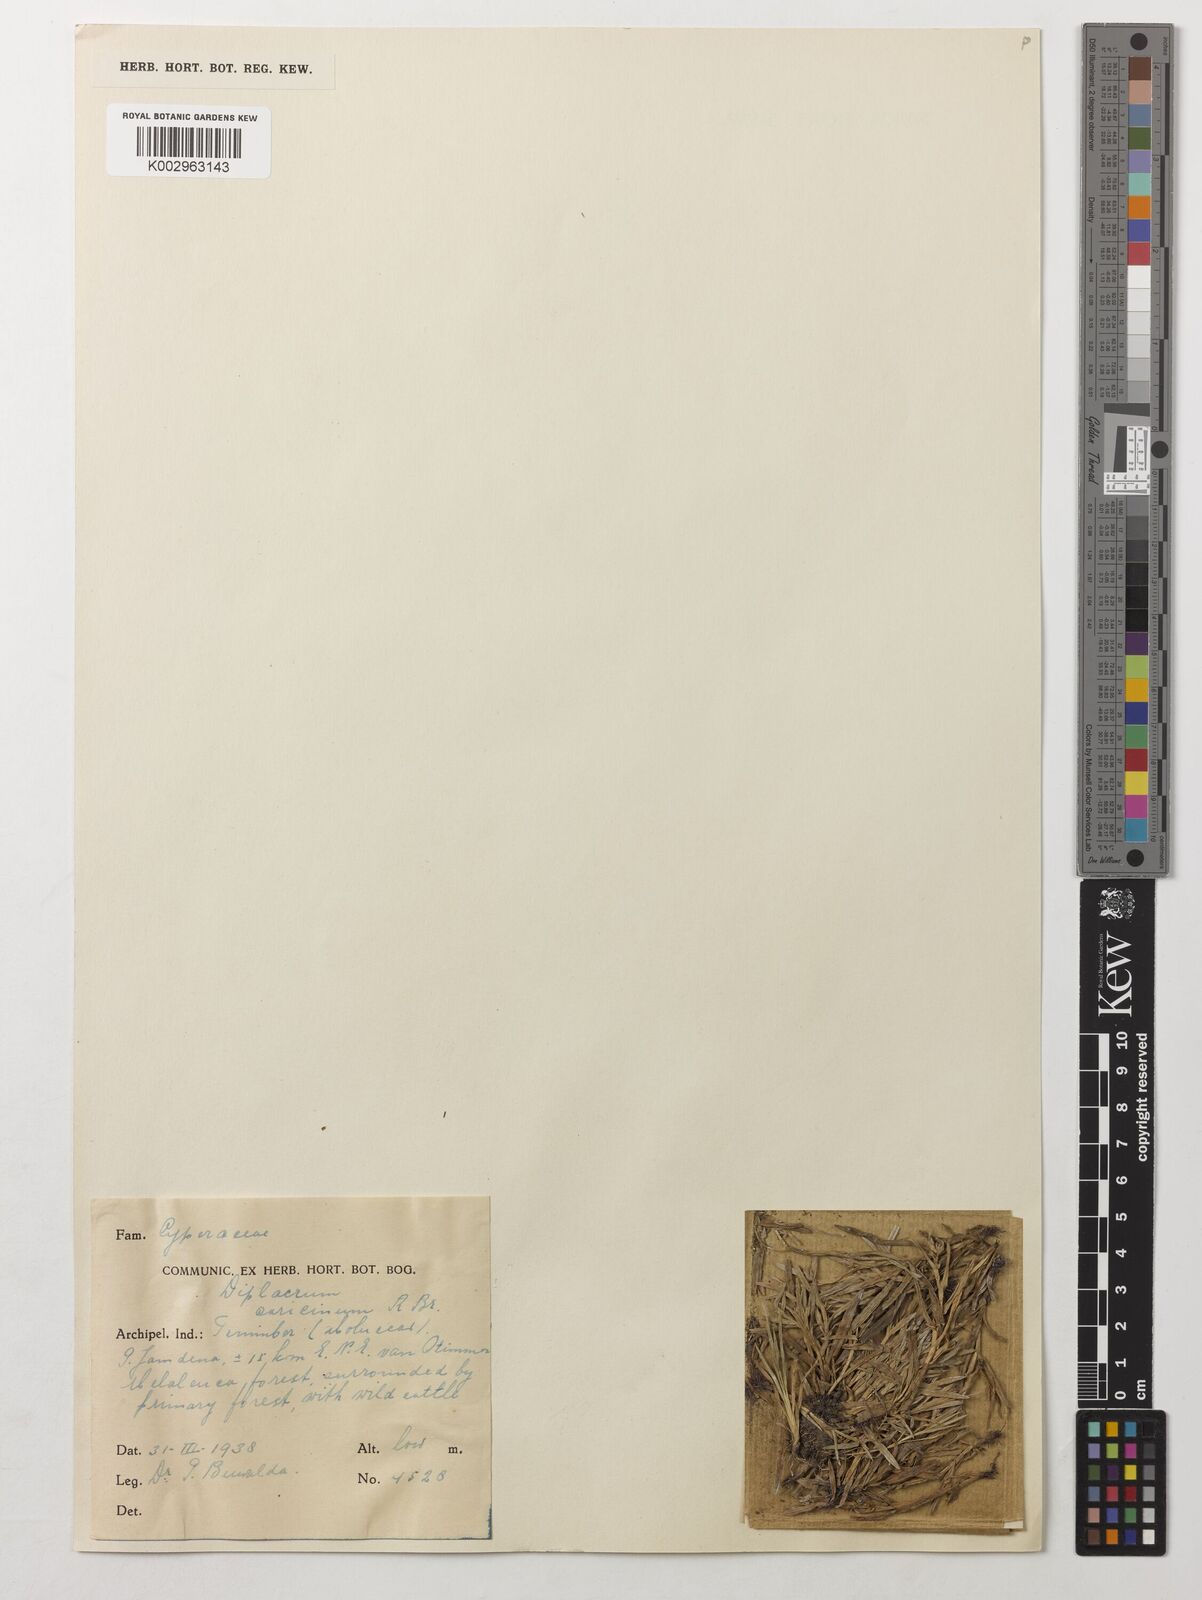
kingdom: Plantae
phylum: Tracheophyta
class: Liliopsida
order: Poales
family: Cyperaceae
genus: Diplacrum
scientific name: Diplacrum caricinum
